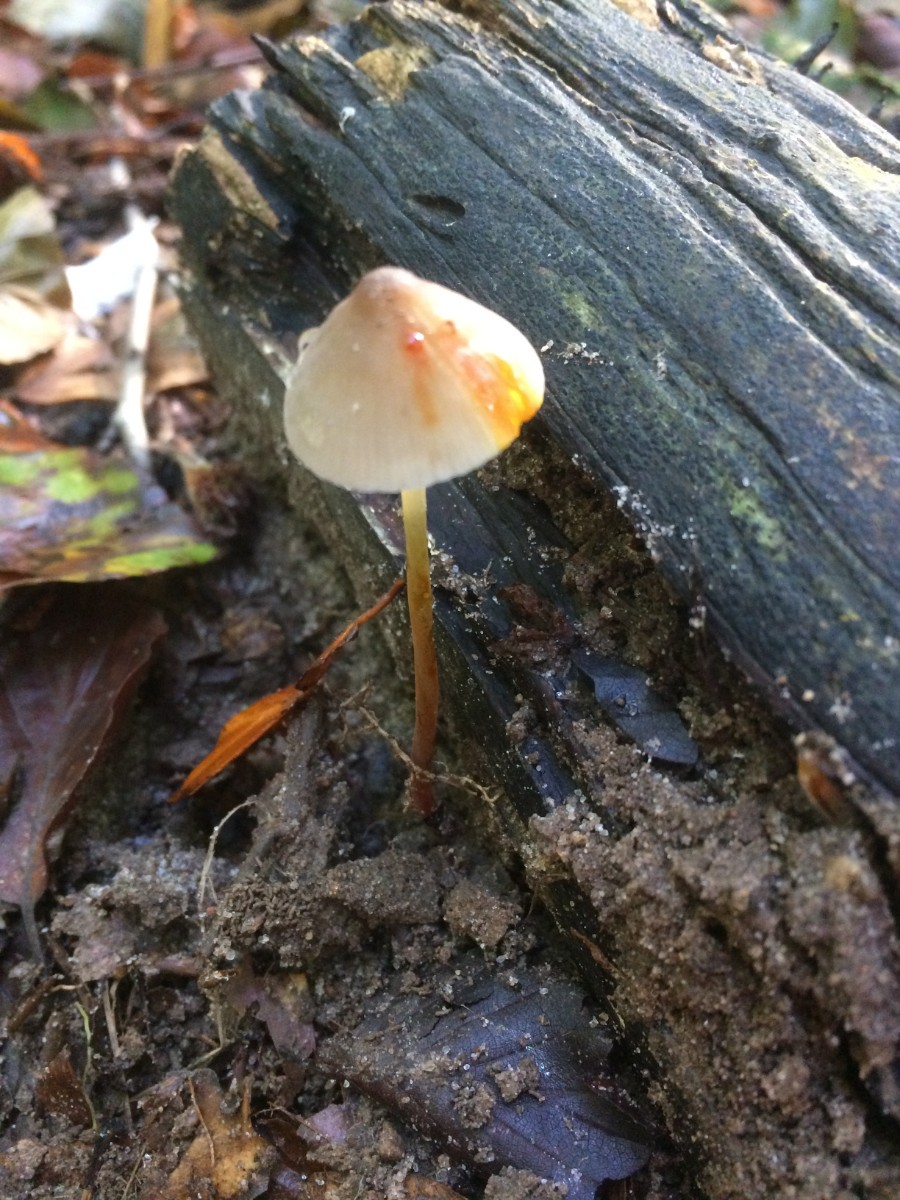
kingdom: Fungi
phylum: Basidiomycota
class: Agaricomycetes
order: Agaricales
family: Mycenaceae
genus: Mycena
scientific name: Mycena crocata
